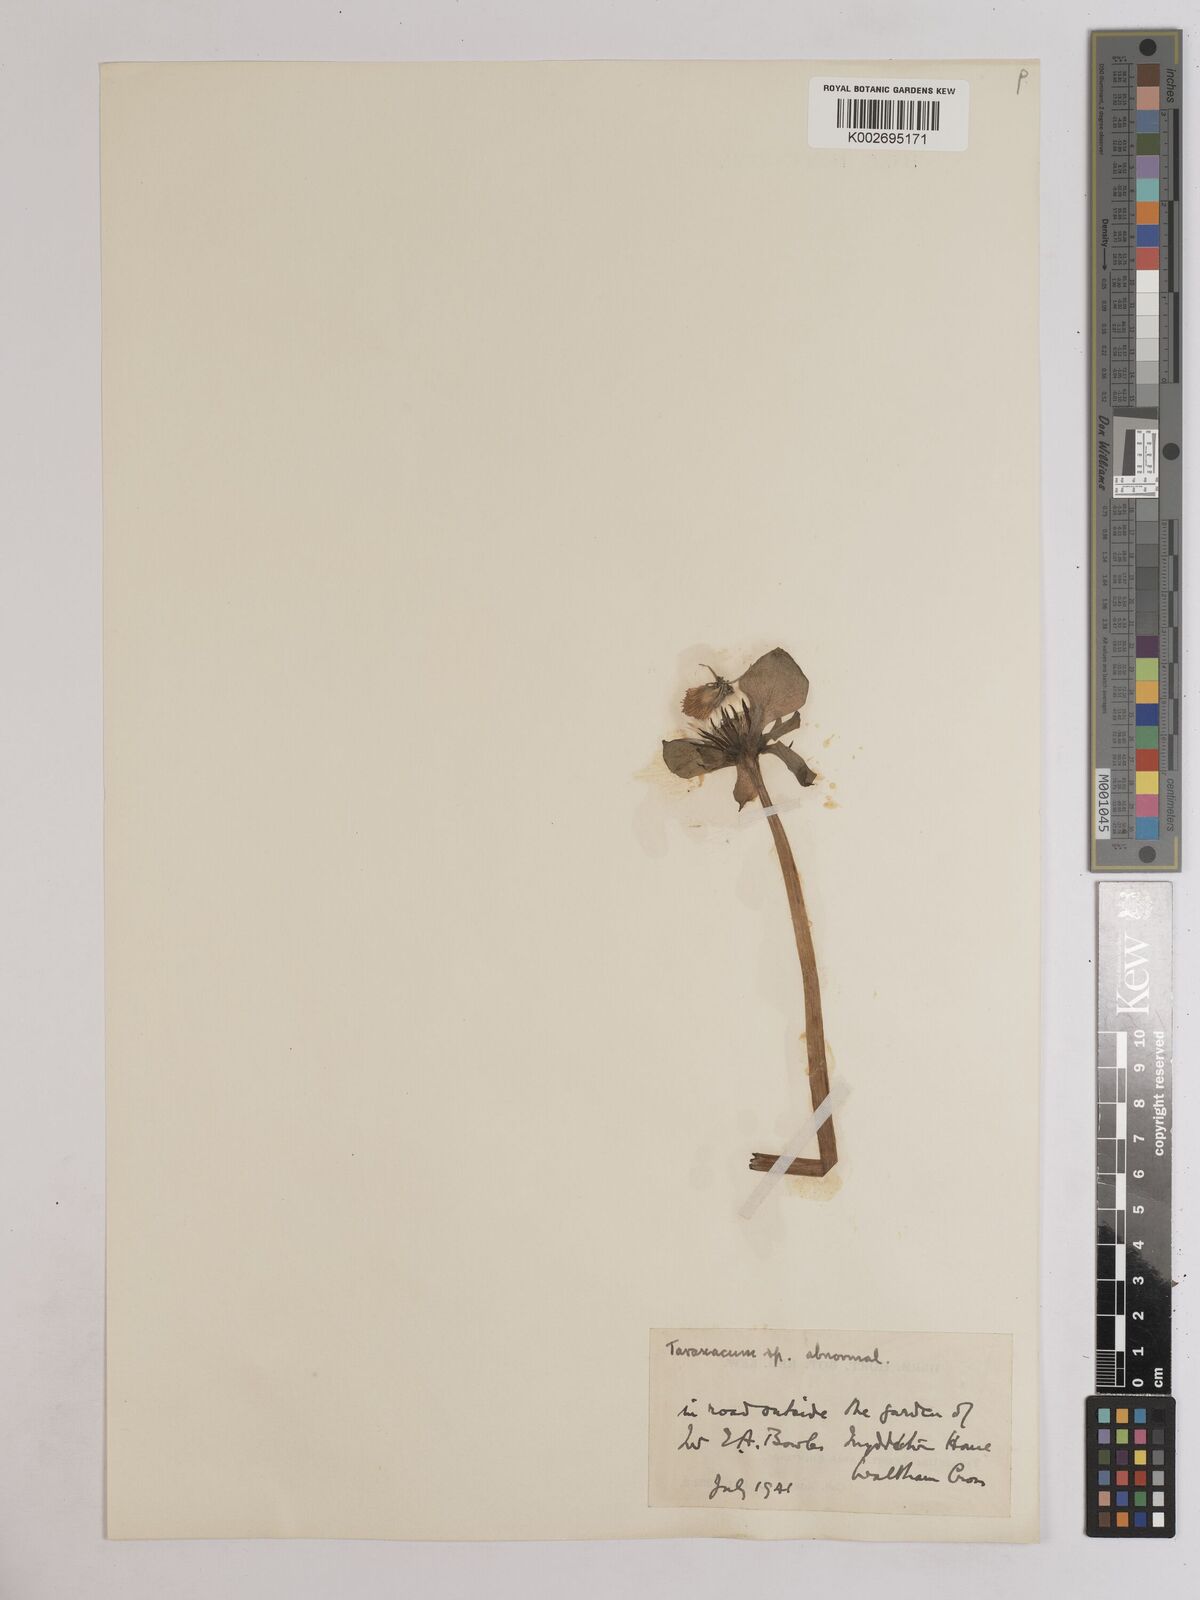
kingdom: Plantae
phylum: Tracheophyta
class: Magnoliopsida
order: Asterales
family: Asteraceae
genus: Taraxacum
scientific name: Taraxacum officinale
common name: Common dandelion
